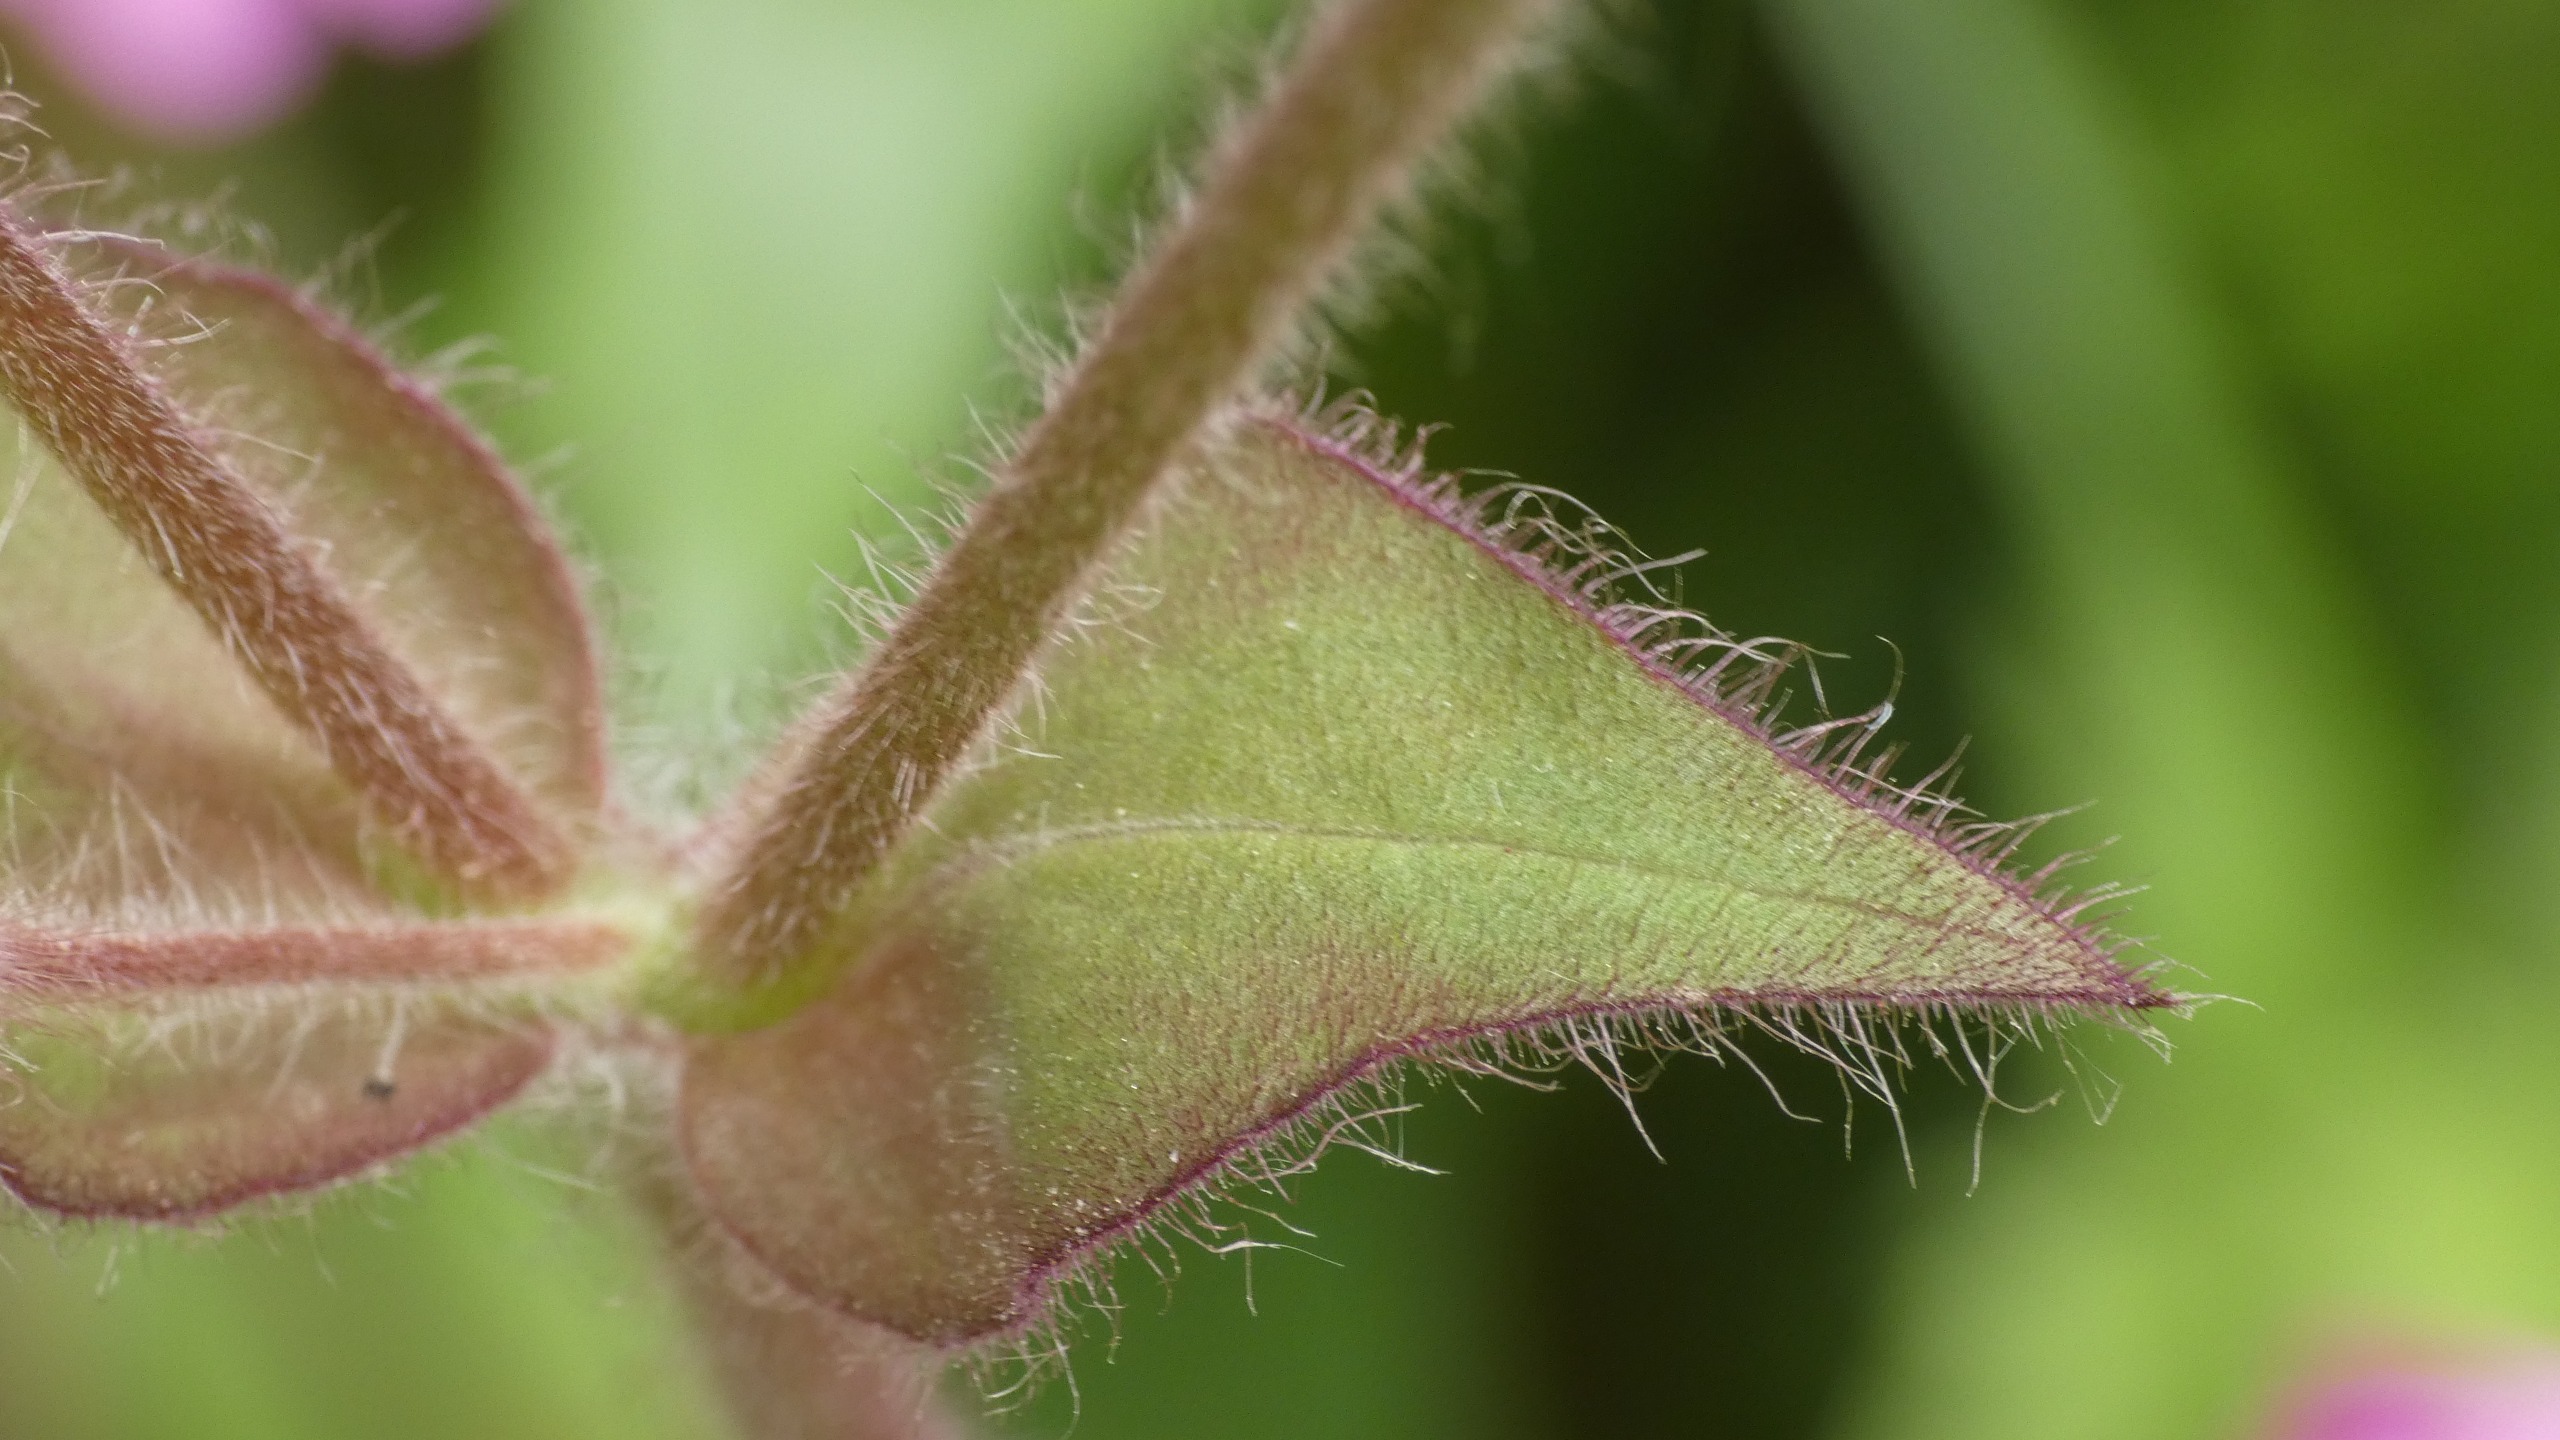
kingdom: Plantae
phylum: Tracheophyta
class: Magnoliopsida
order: Caryophyllales
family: Caryophyllaceae
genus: Silene
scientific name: Silene dioica
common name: Dagpragtstjerne
